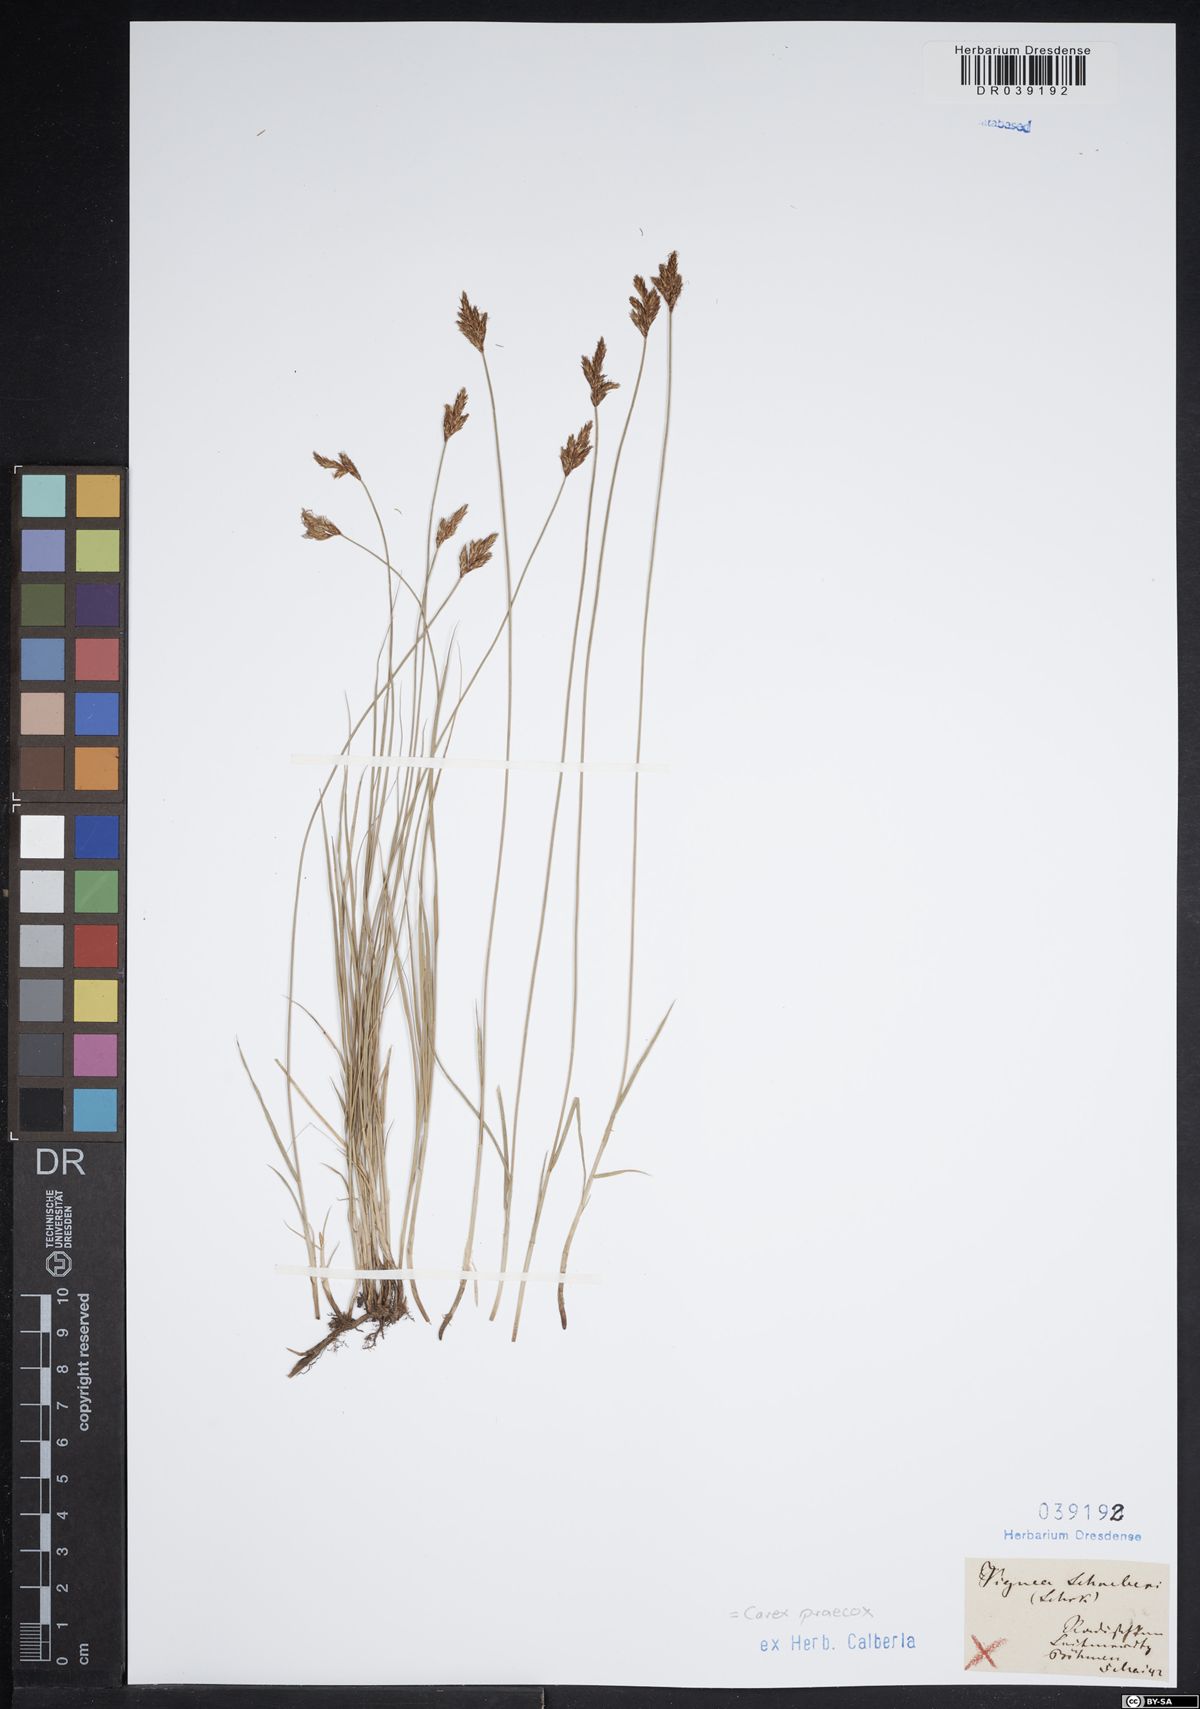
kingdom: Plantae
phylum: Tracheophyta
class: Liliopsida
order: Poales
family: Cyperaceae
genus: Carex
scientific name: Carex praecox
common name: Early sedge
